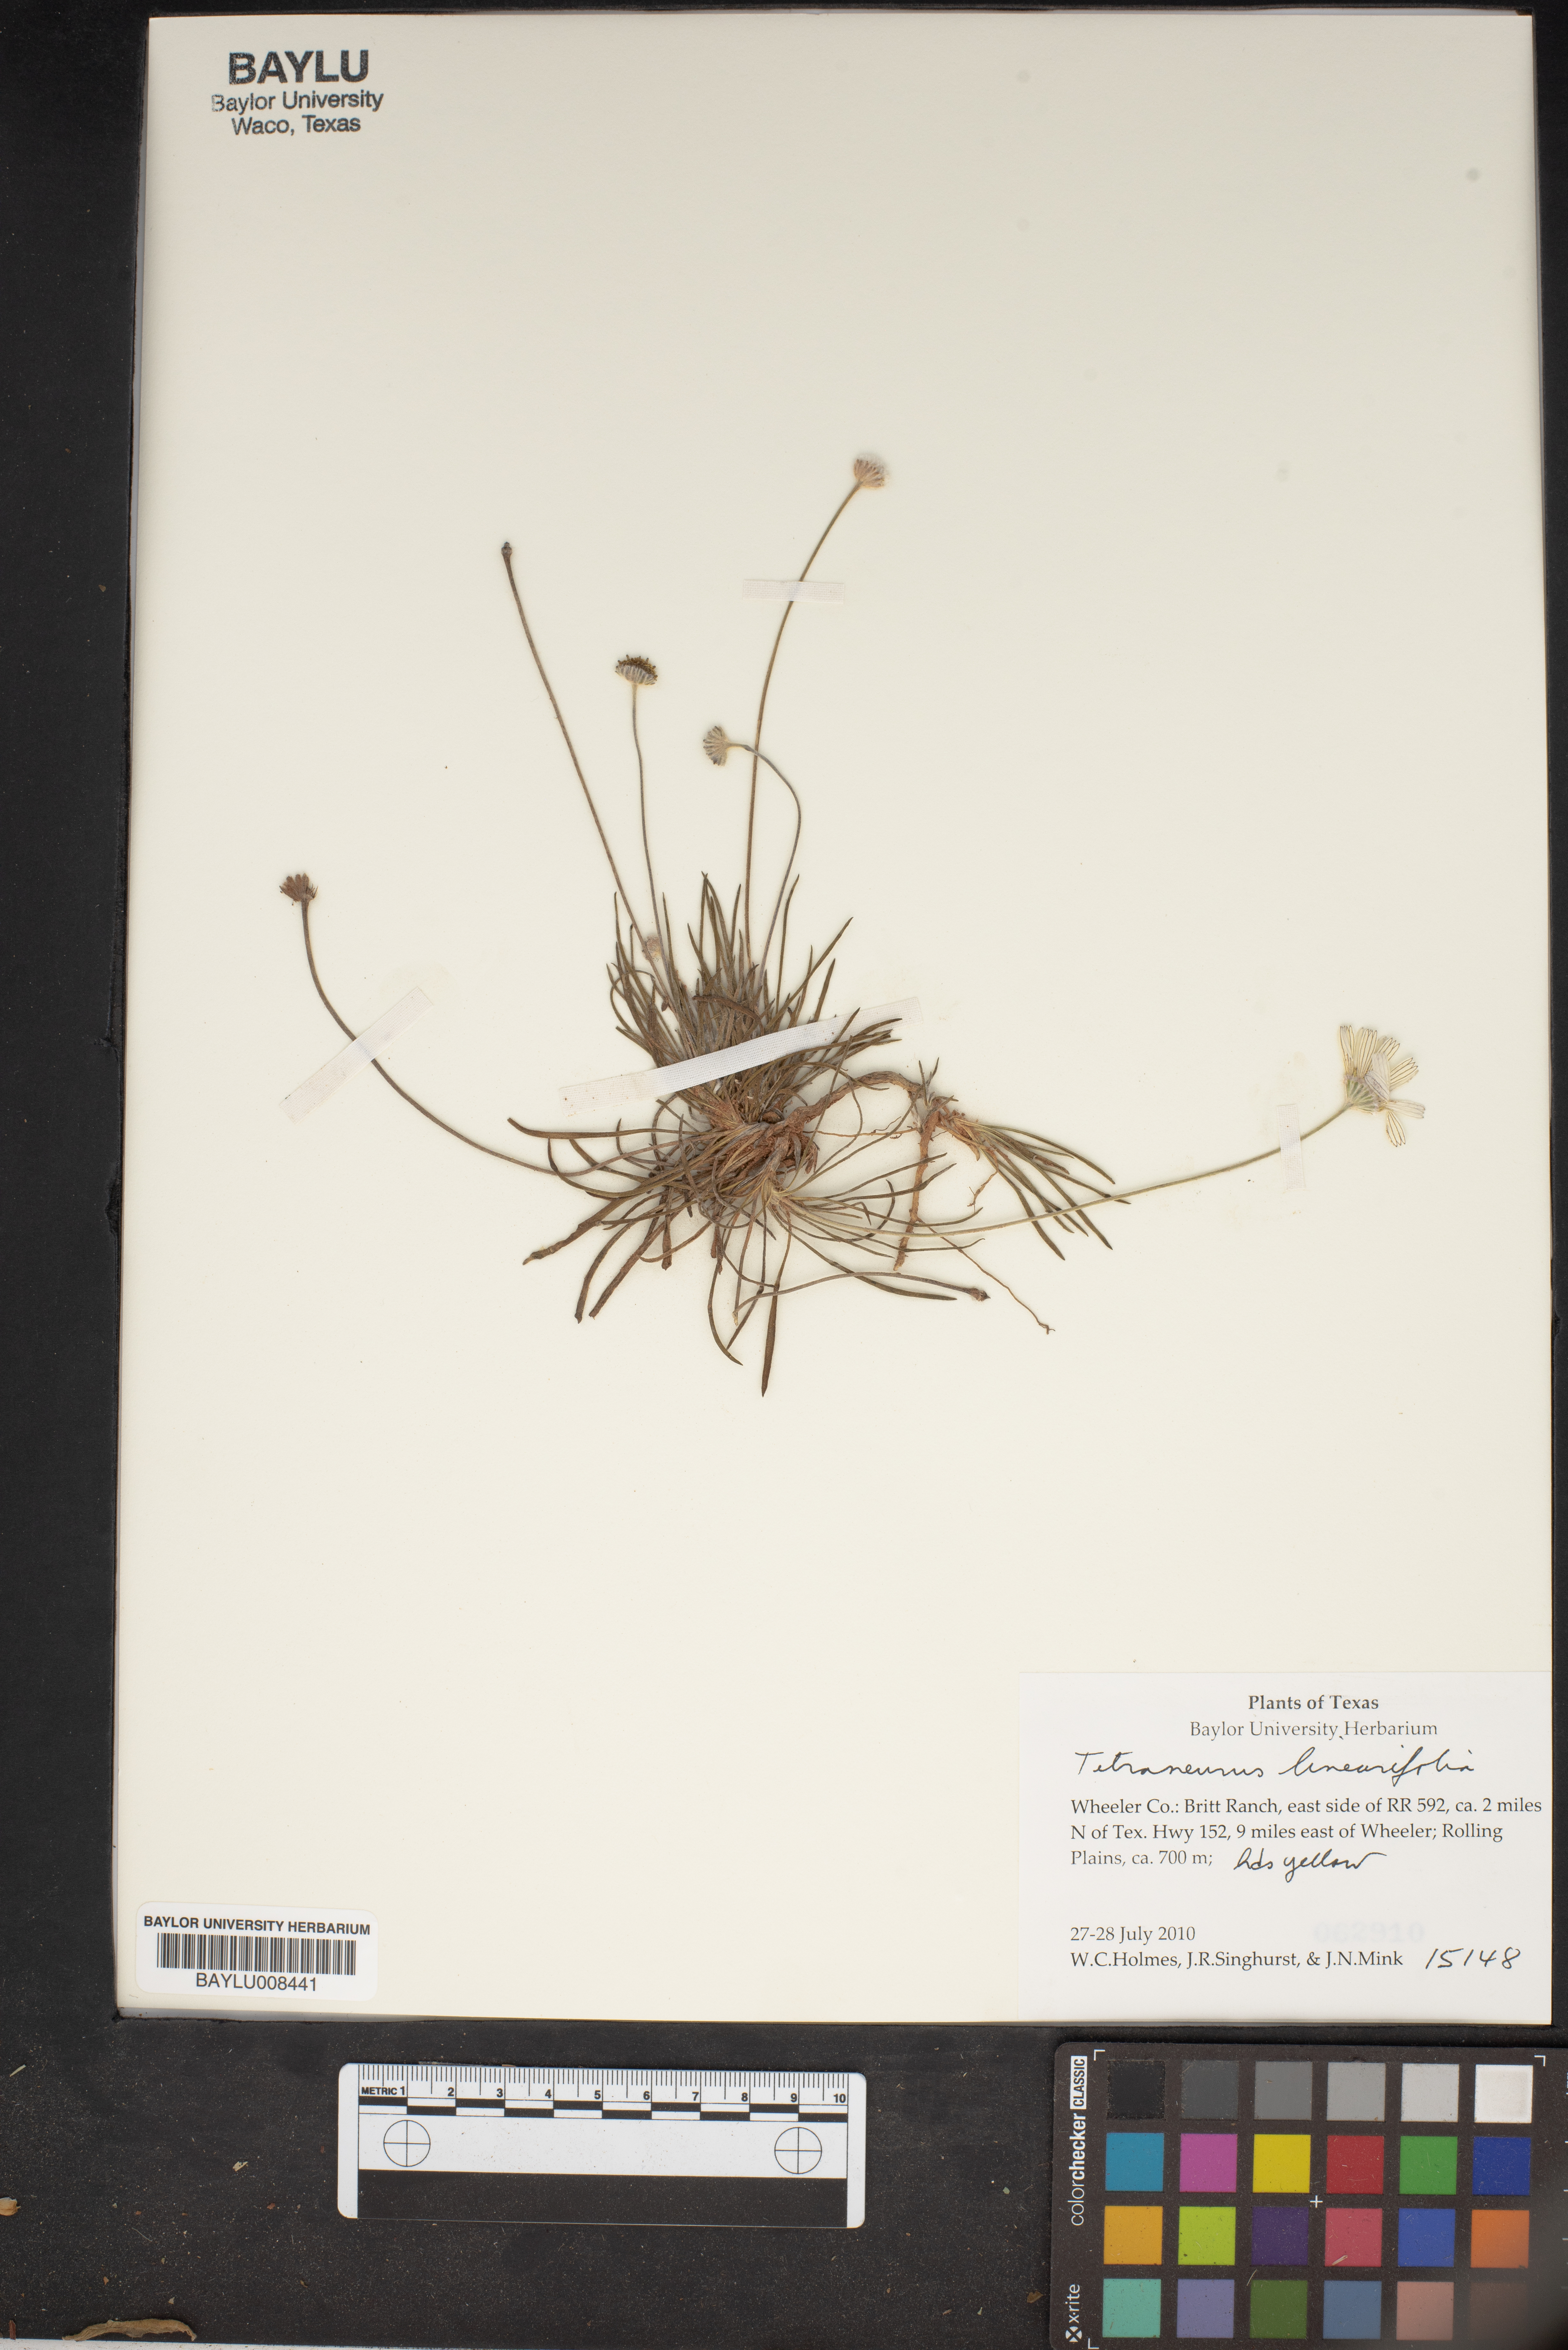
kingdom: Plantae
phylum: Tracheophyta
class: Magnoliopsida
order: Asterales
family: Asteraceae
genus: Tetraneuris
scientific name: Tetraneuris linearifolia
